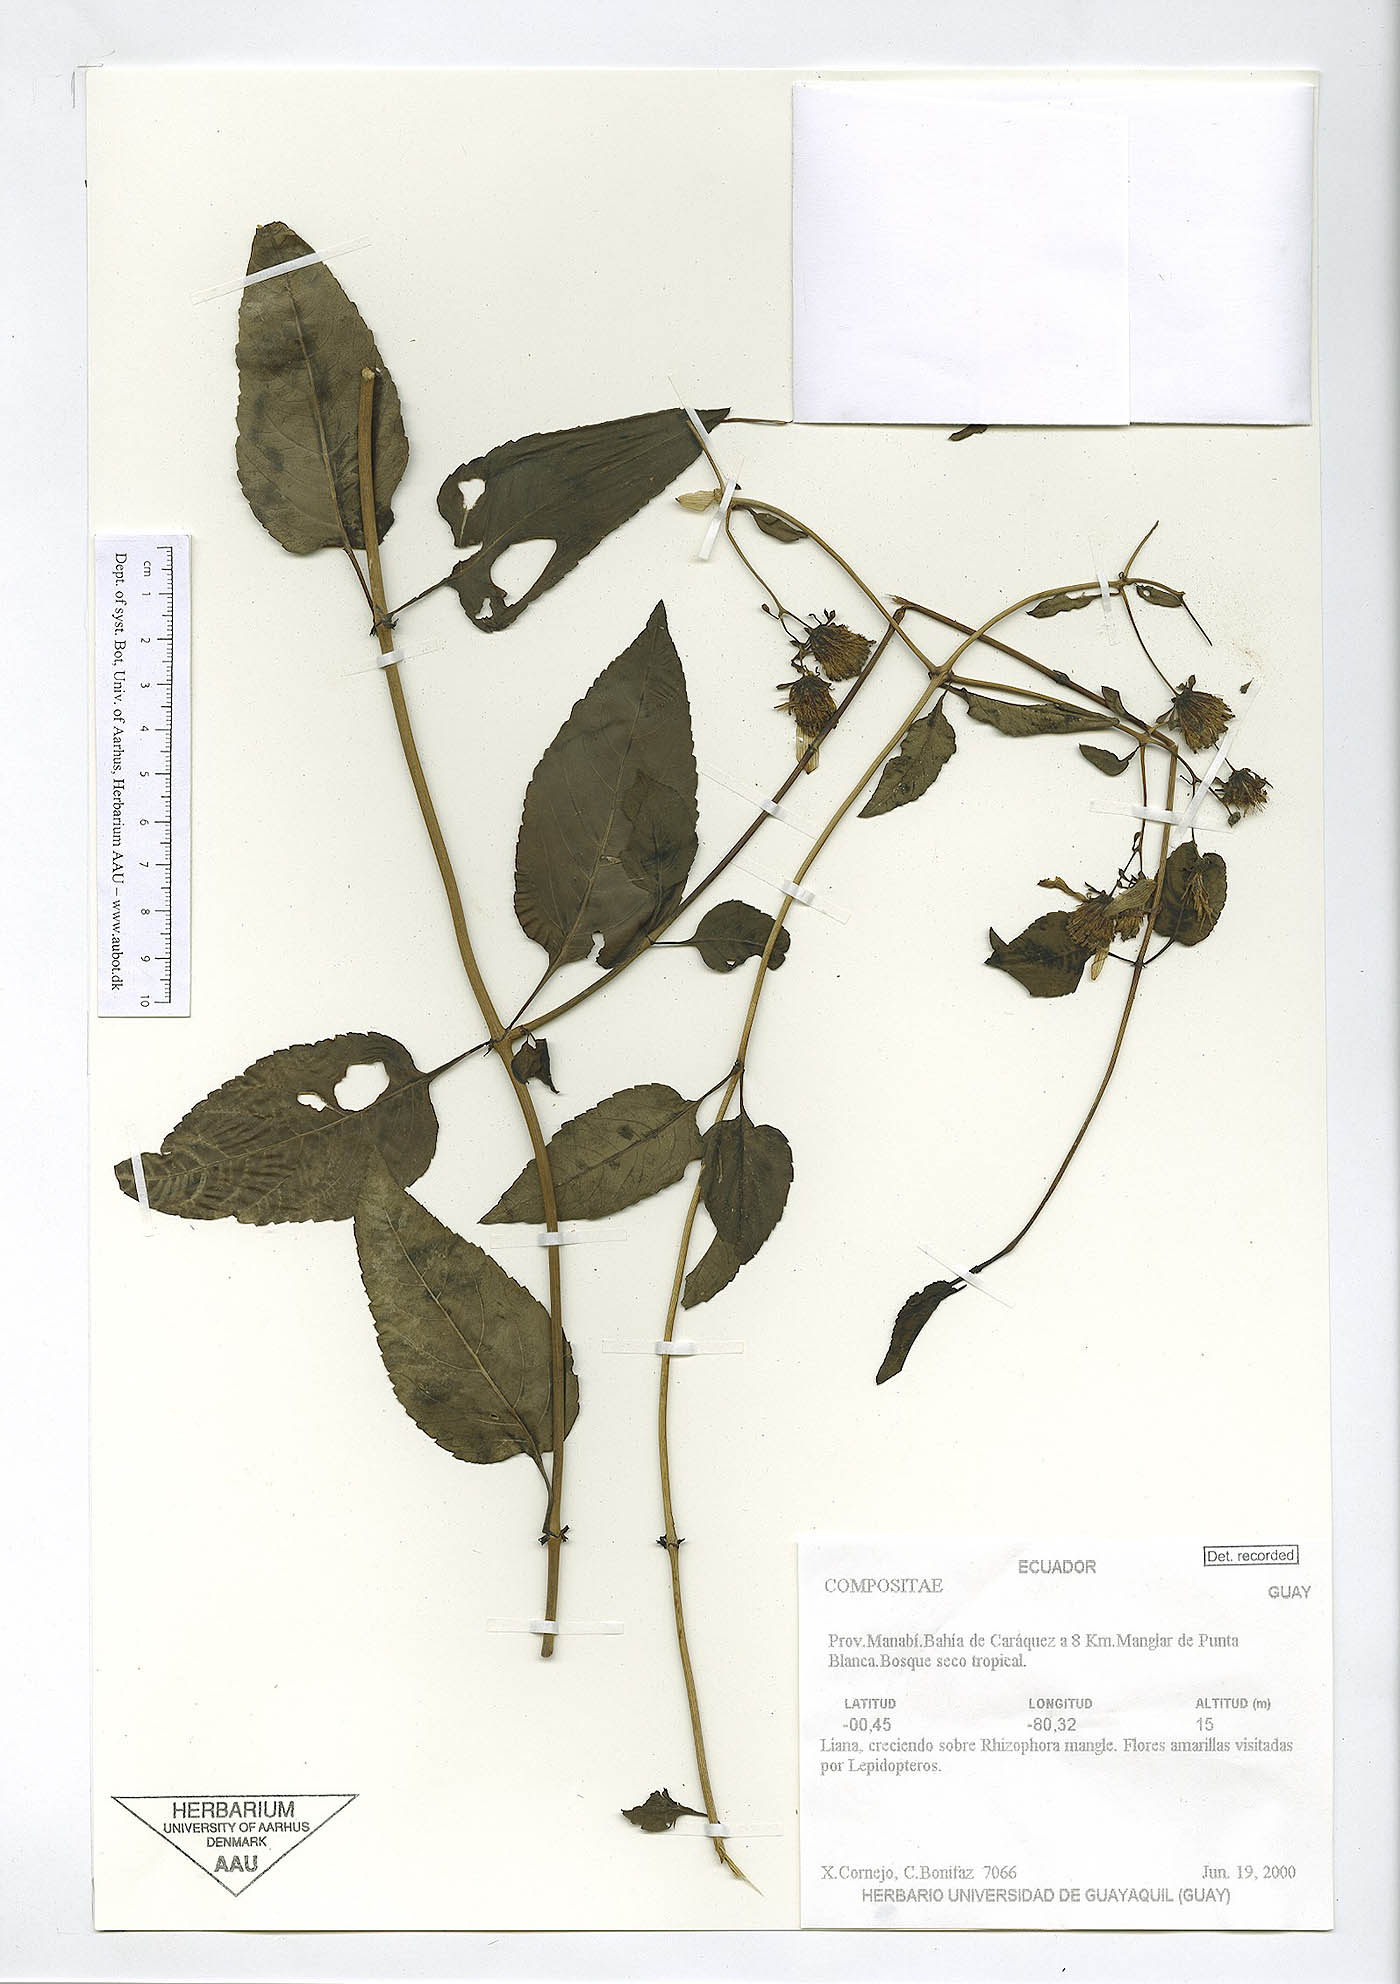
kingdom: Plantae
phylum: Tracheophyta
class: Magnoliopsida
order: Asterales
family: Asteraceae
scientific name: Asteraceae
